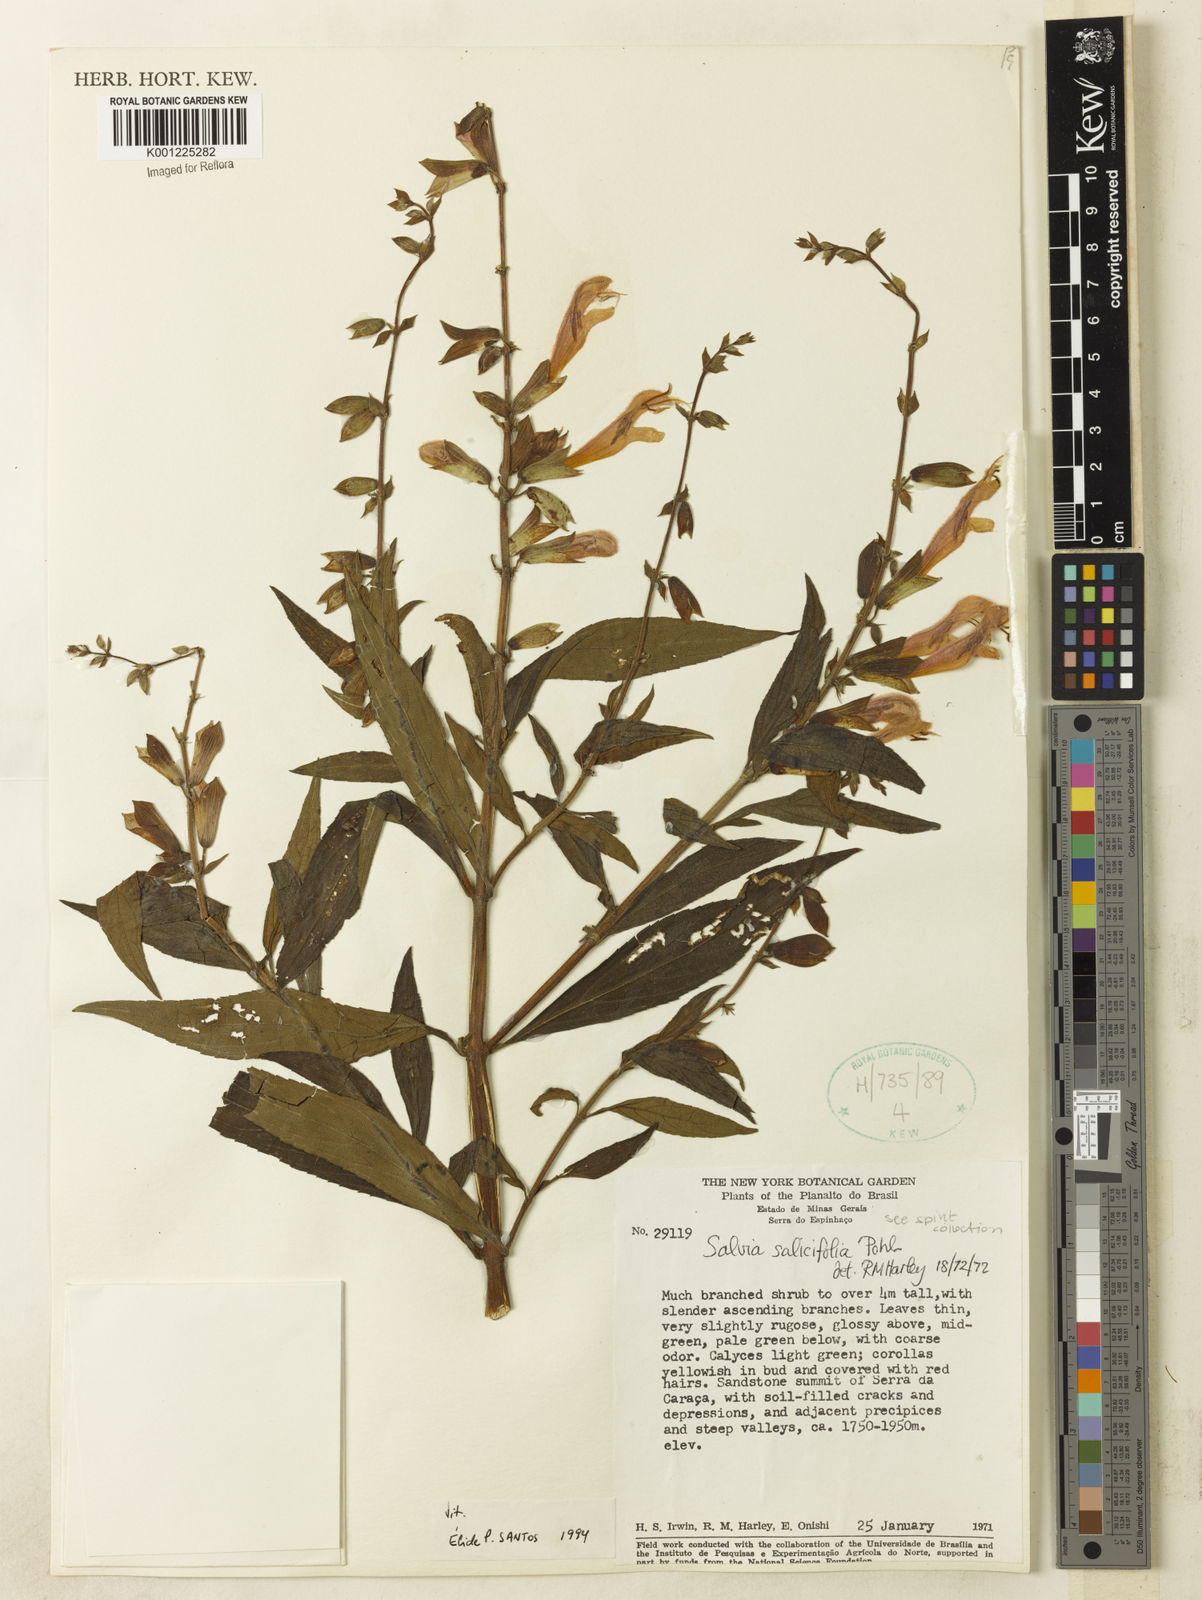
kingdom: Plantae
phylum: Tracheophyta
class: Magnoliopsida
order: Lamiales
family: Lamiaceae
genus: Salvia
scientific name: Salvia salicifolia
